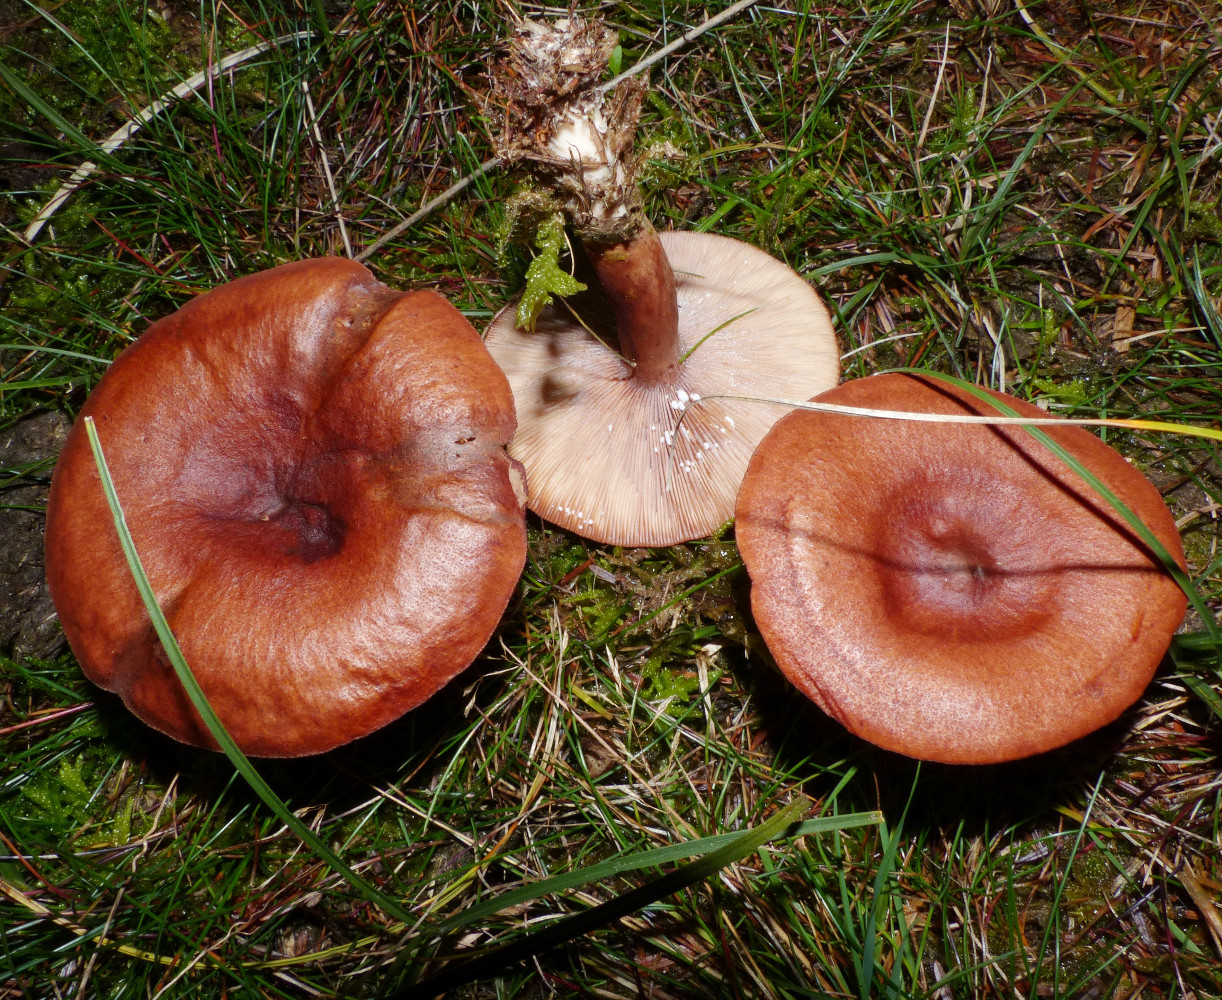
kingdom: Fungi
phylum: Basidiomycota
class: Agaricomycetes
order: Russulales
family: Russulaceae
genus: Lactarius
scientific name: Lactarius rufus
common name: rødbrun mælkehat
